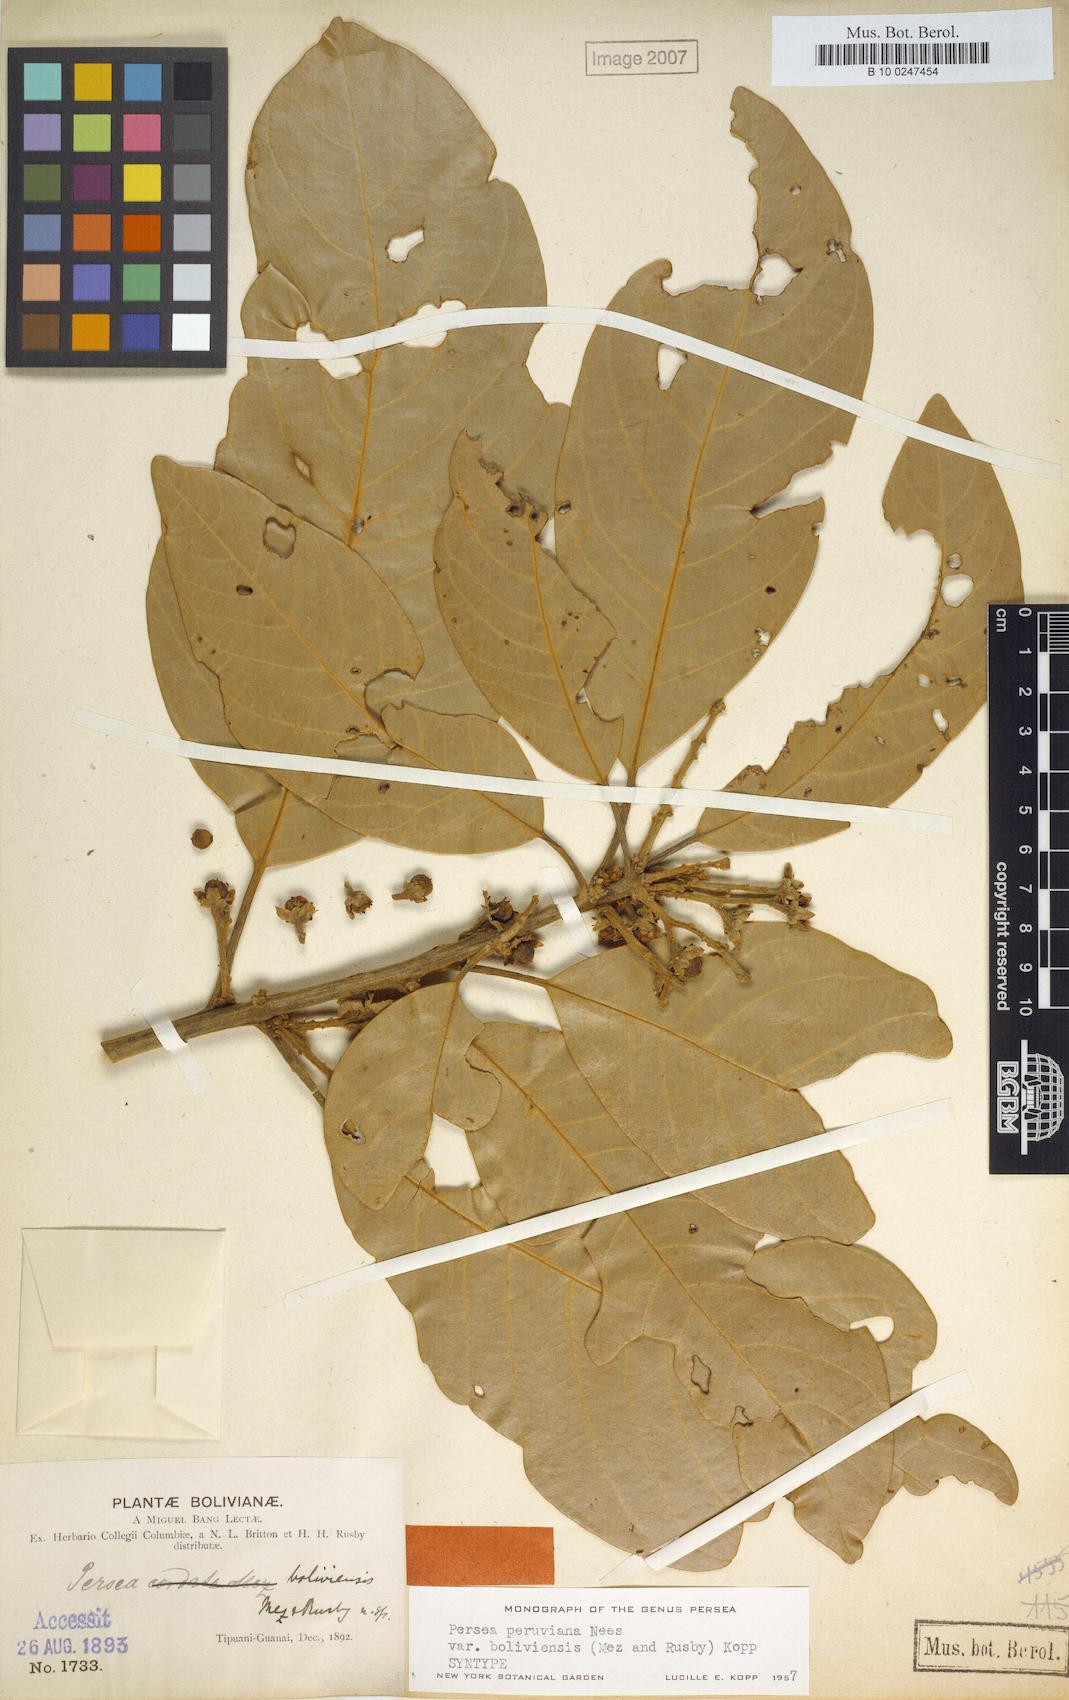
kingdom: Plantae
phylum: Tracheophyta
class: Magnoliopsida
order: Laurales
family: Lauraceae
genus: Persea
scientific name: Persea peruviana
